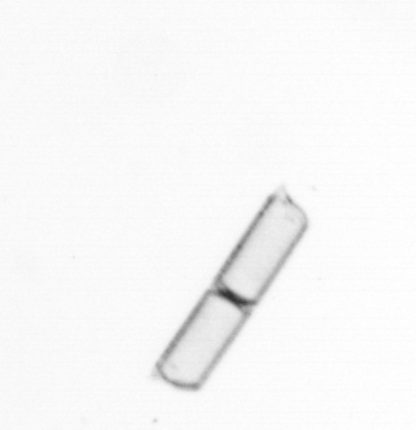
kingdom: Chromista
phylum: Ochrophyta
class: Bacillariophyceae
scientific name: Bacillariophyceae
